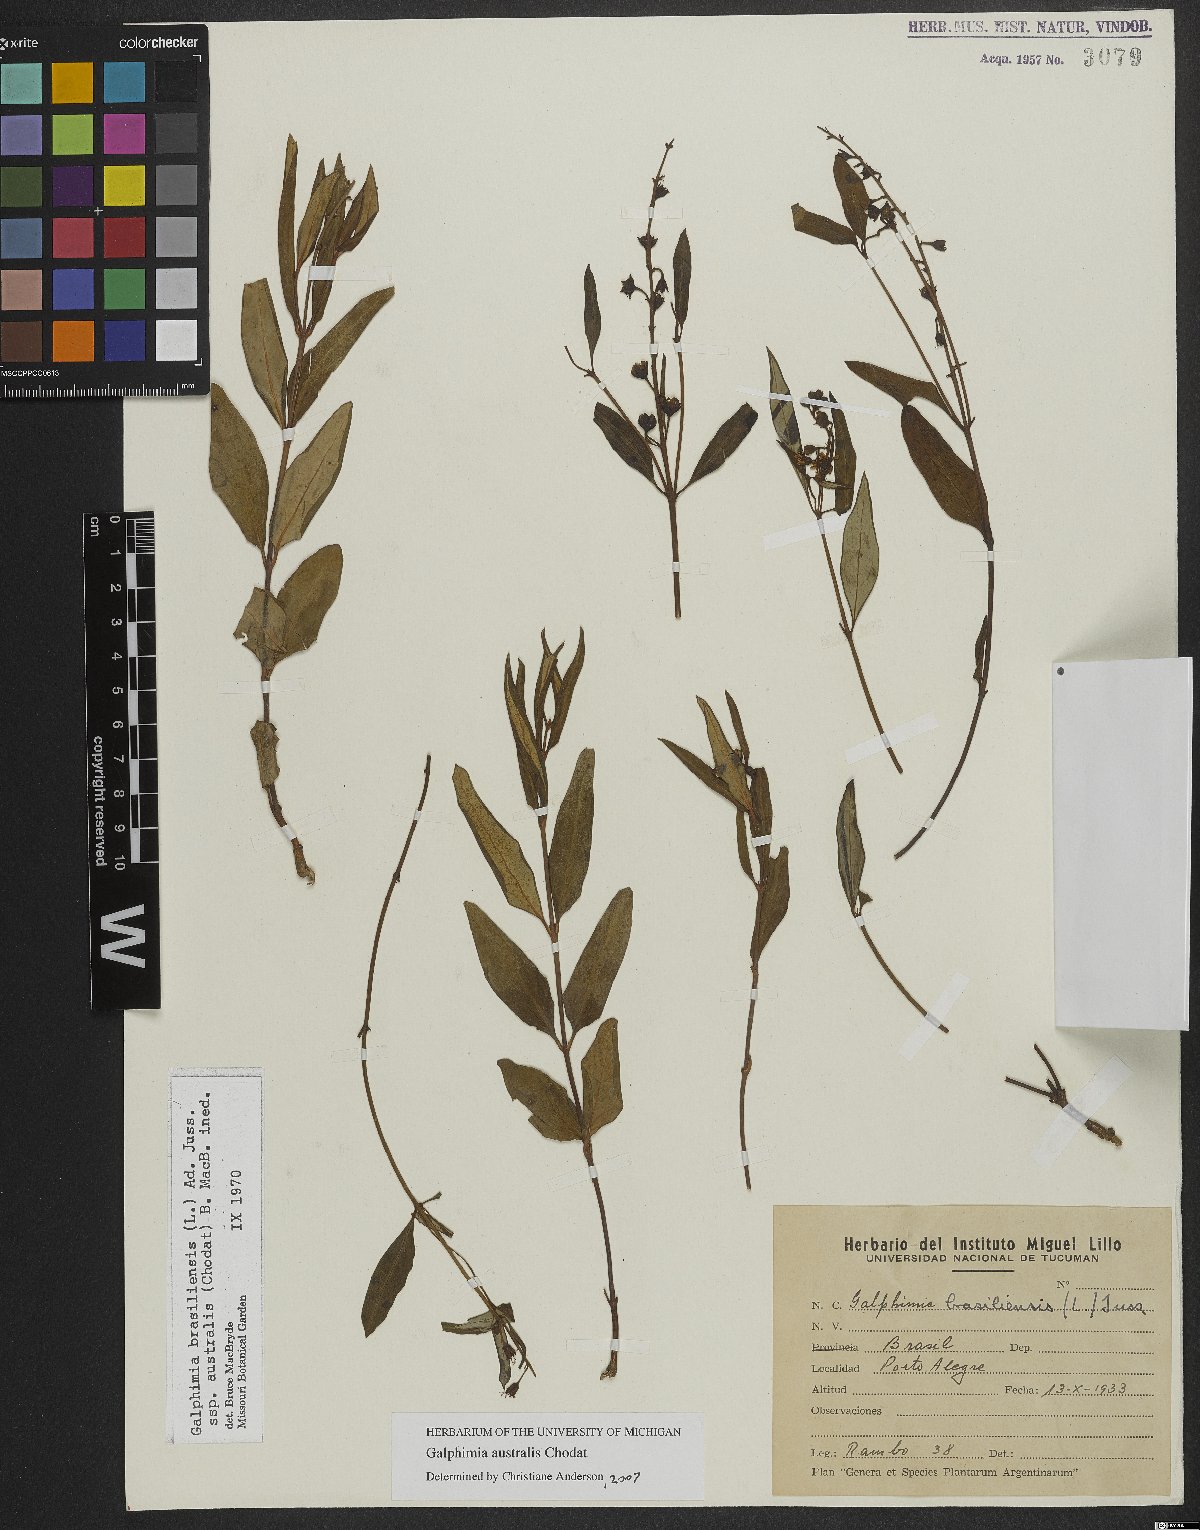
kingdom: Plantae
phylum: Tracheophyta
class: Magnoliopsida
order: Malpighiales
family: Malpighiaceae
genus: Galphimia
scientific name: Galphimia australis
